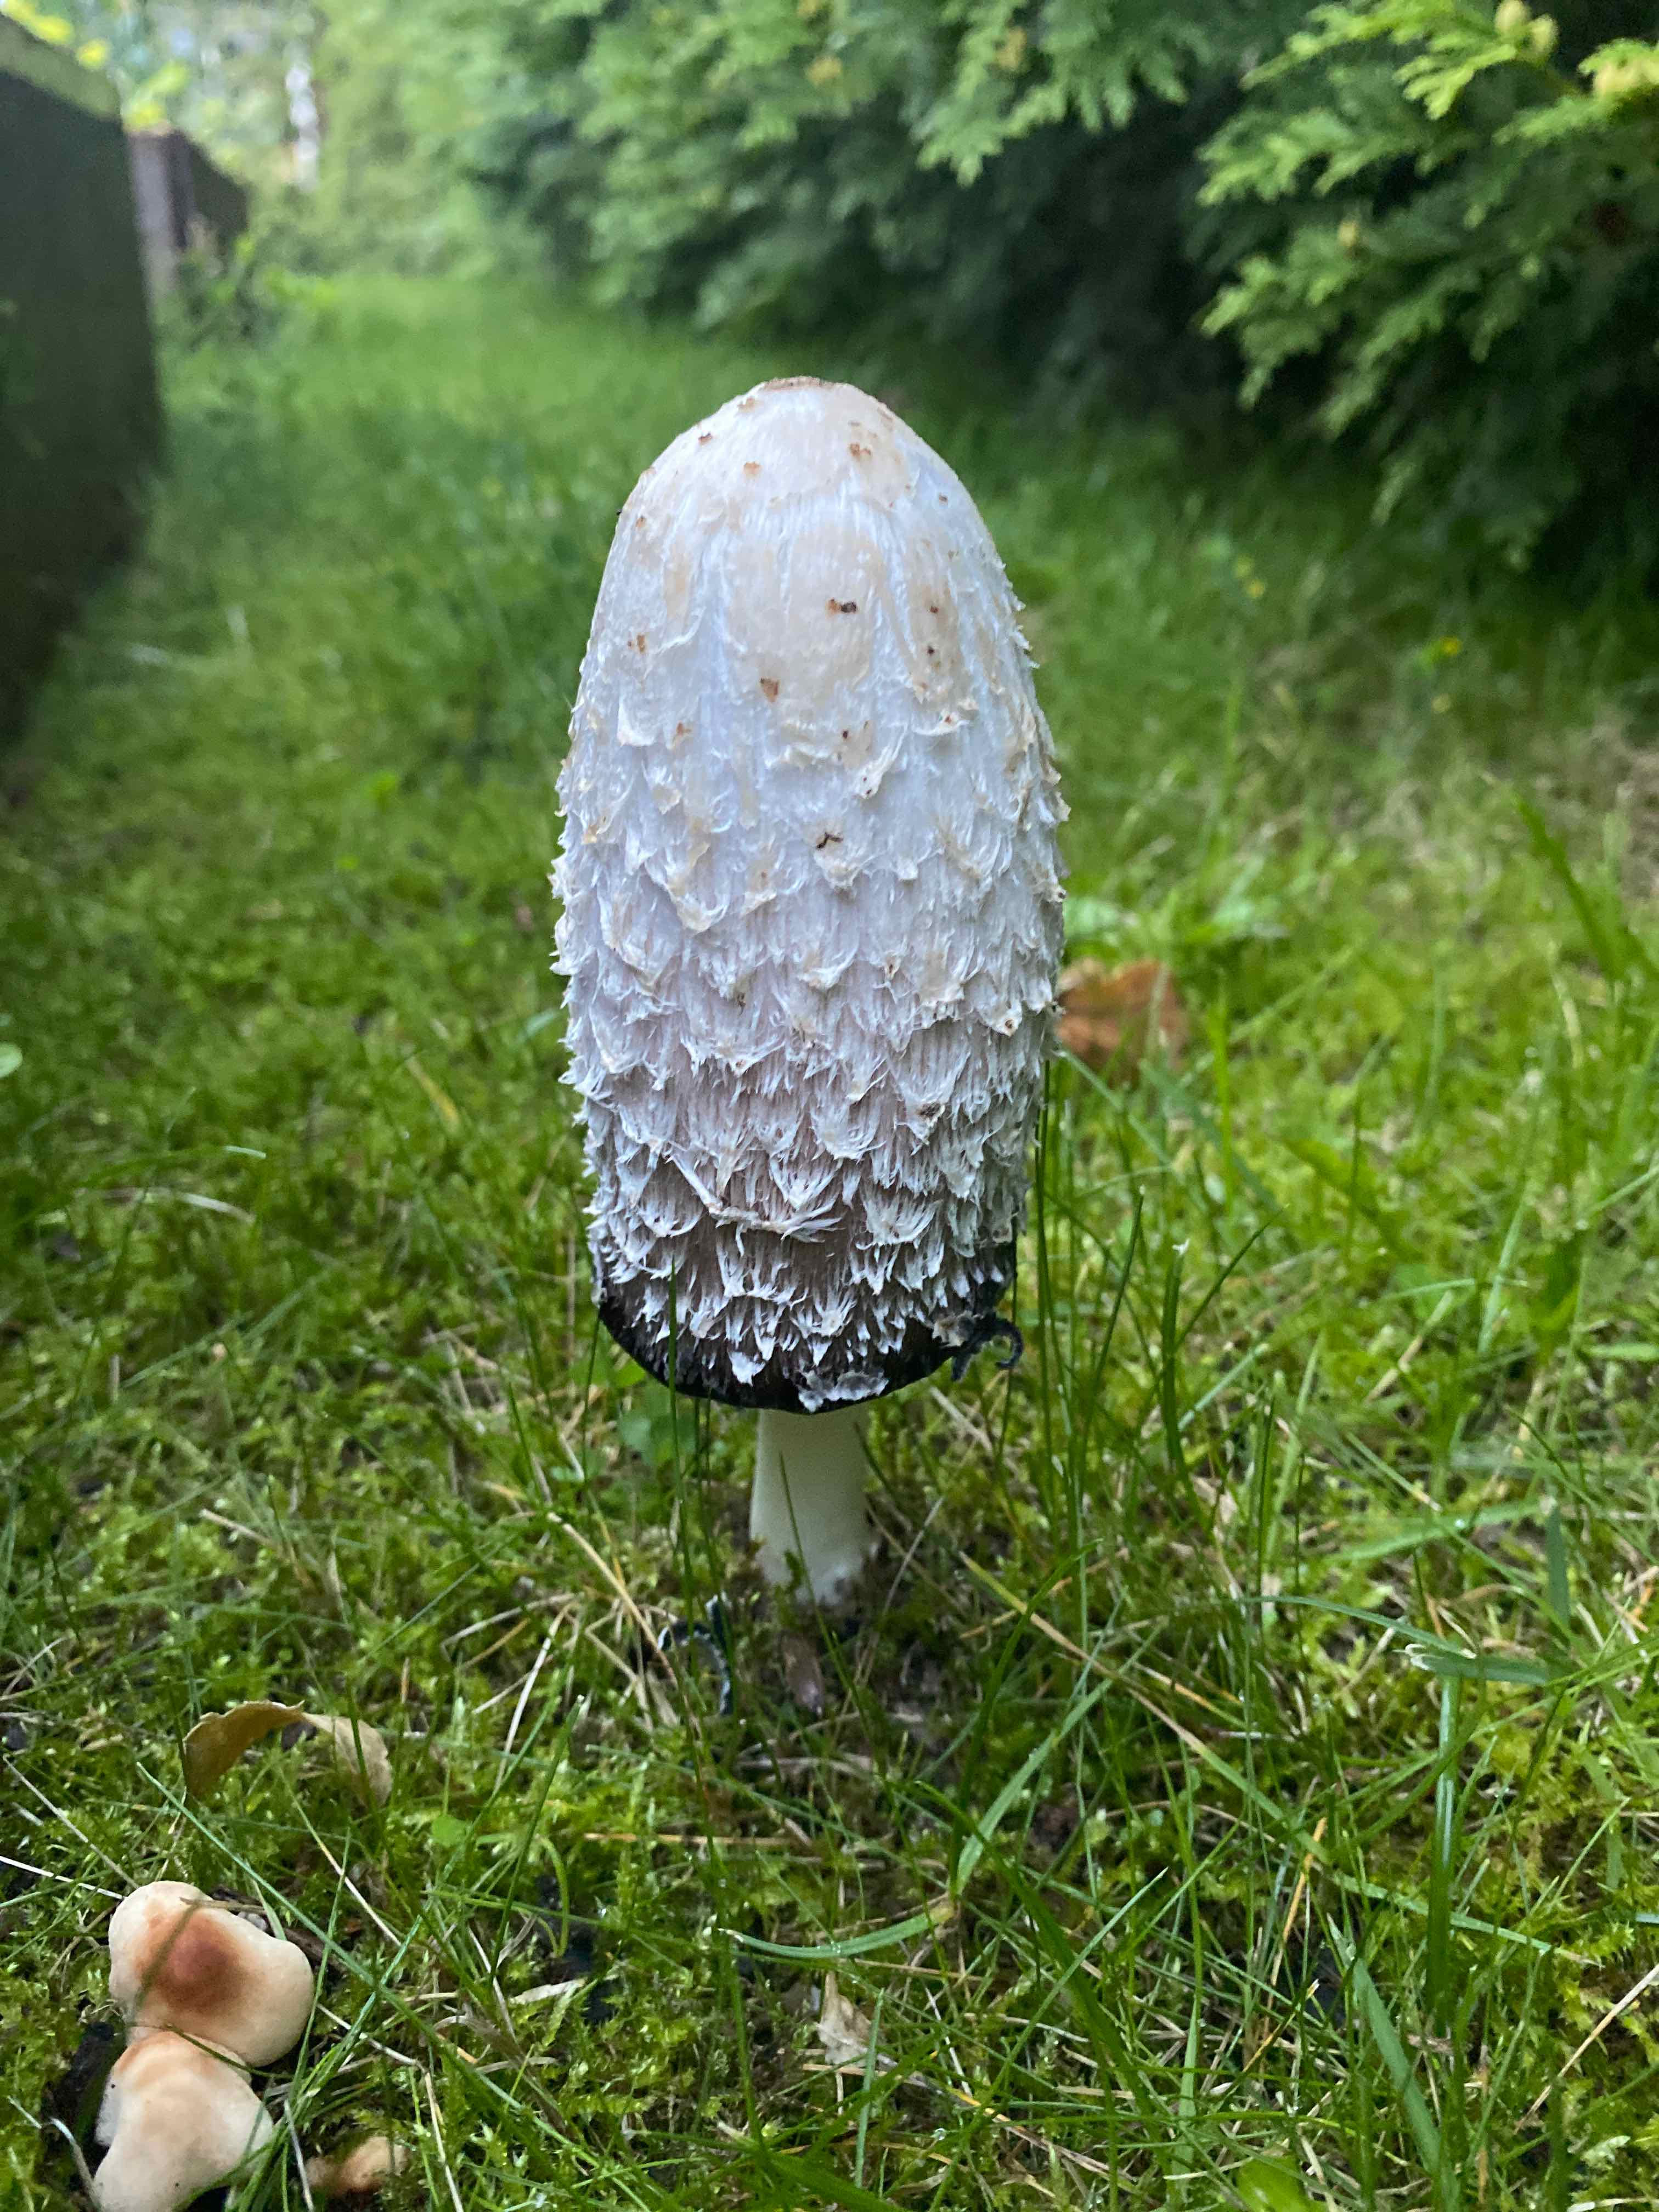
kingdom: Fungi
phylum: Basidiomycota
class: Agaricomycetes
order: Agaricales
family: Agaricaceae
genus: Coprinus
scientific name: Coprinus comatus
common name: stor parykhat
